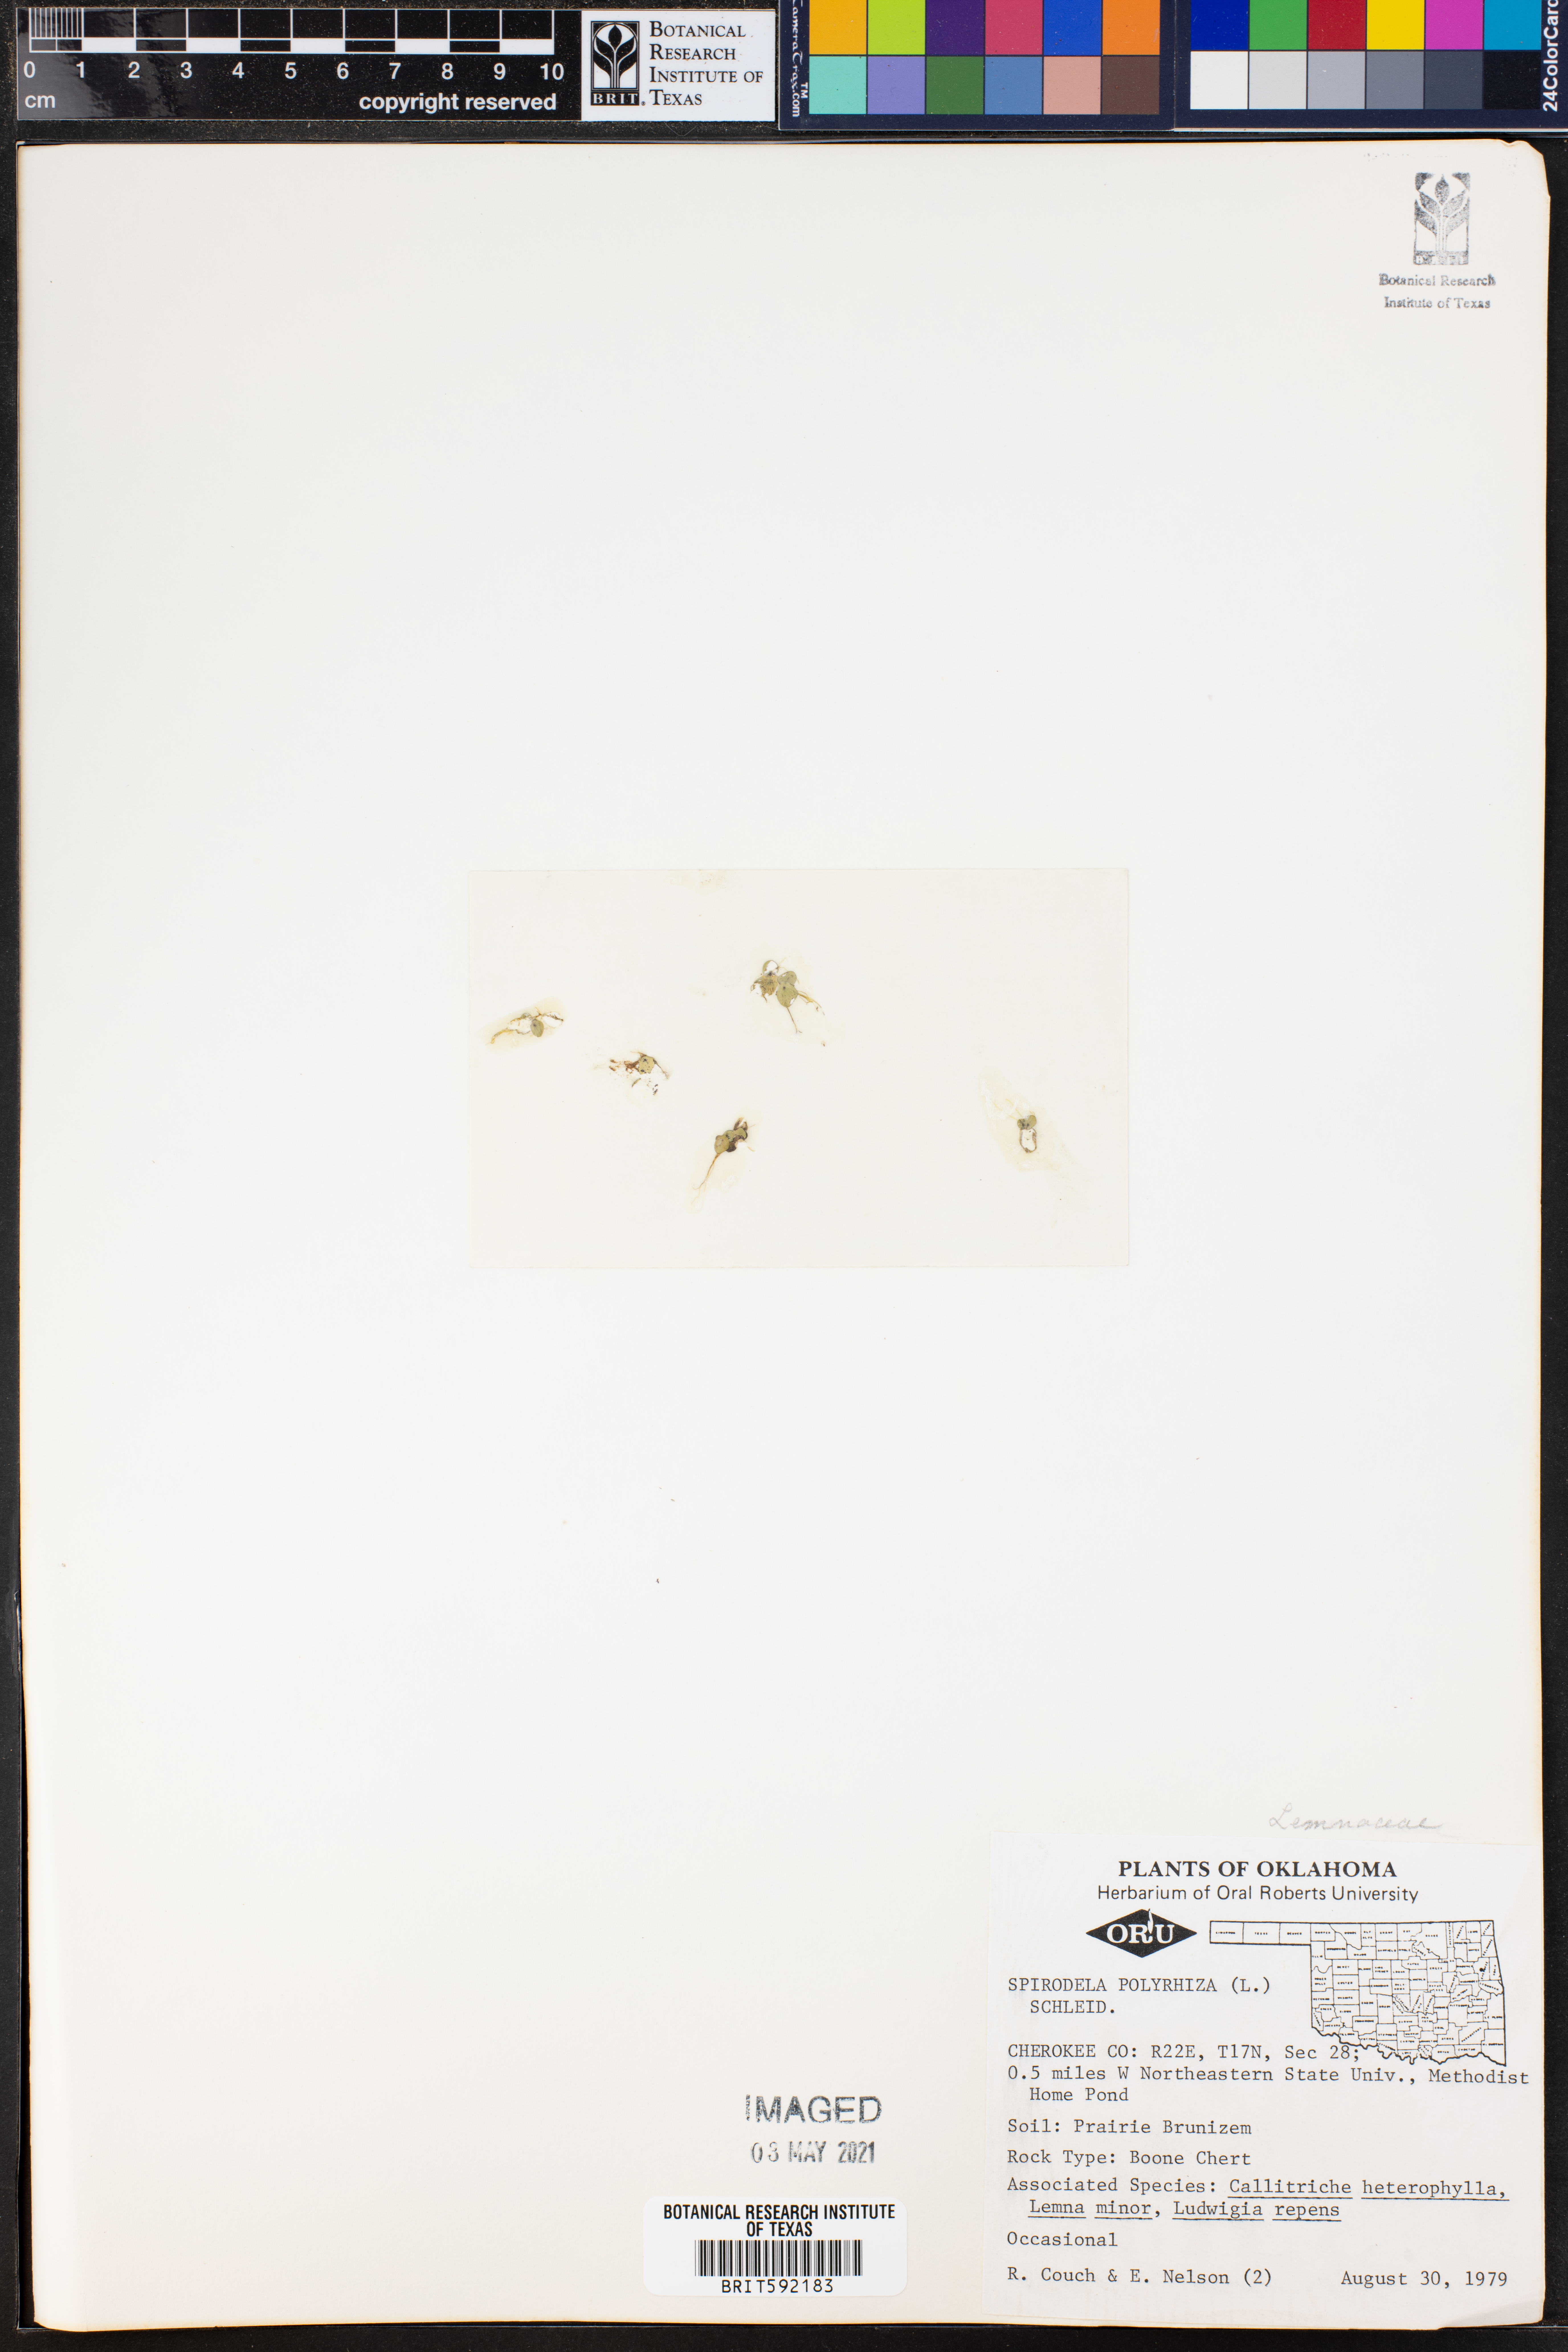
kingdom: Plantae
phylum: Tracheophyta
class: Liliopsida
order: Alismatales
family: Araceae
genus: Spirodela
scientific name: Spirodela polyrhiza
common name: Great duckweed
